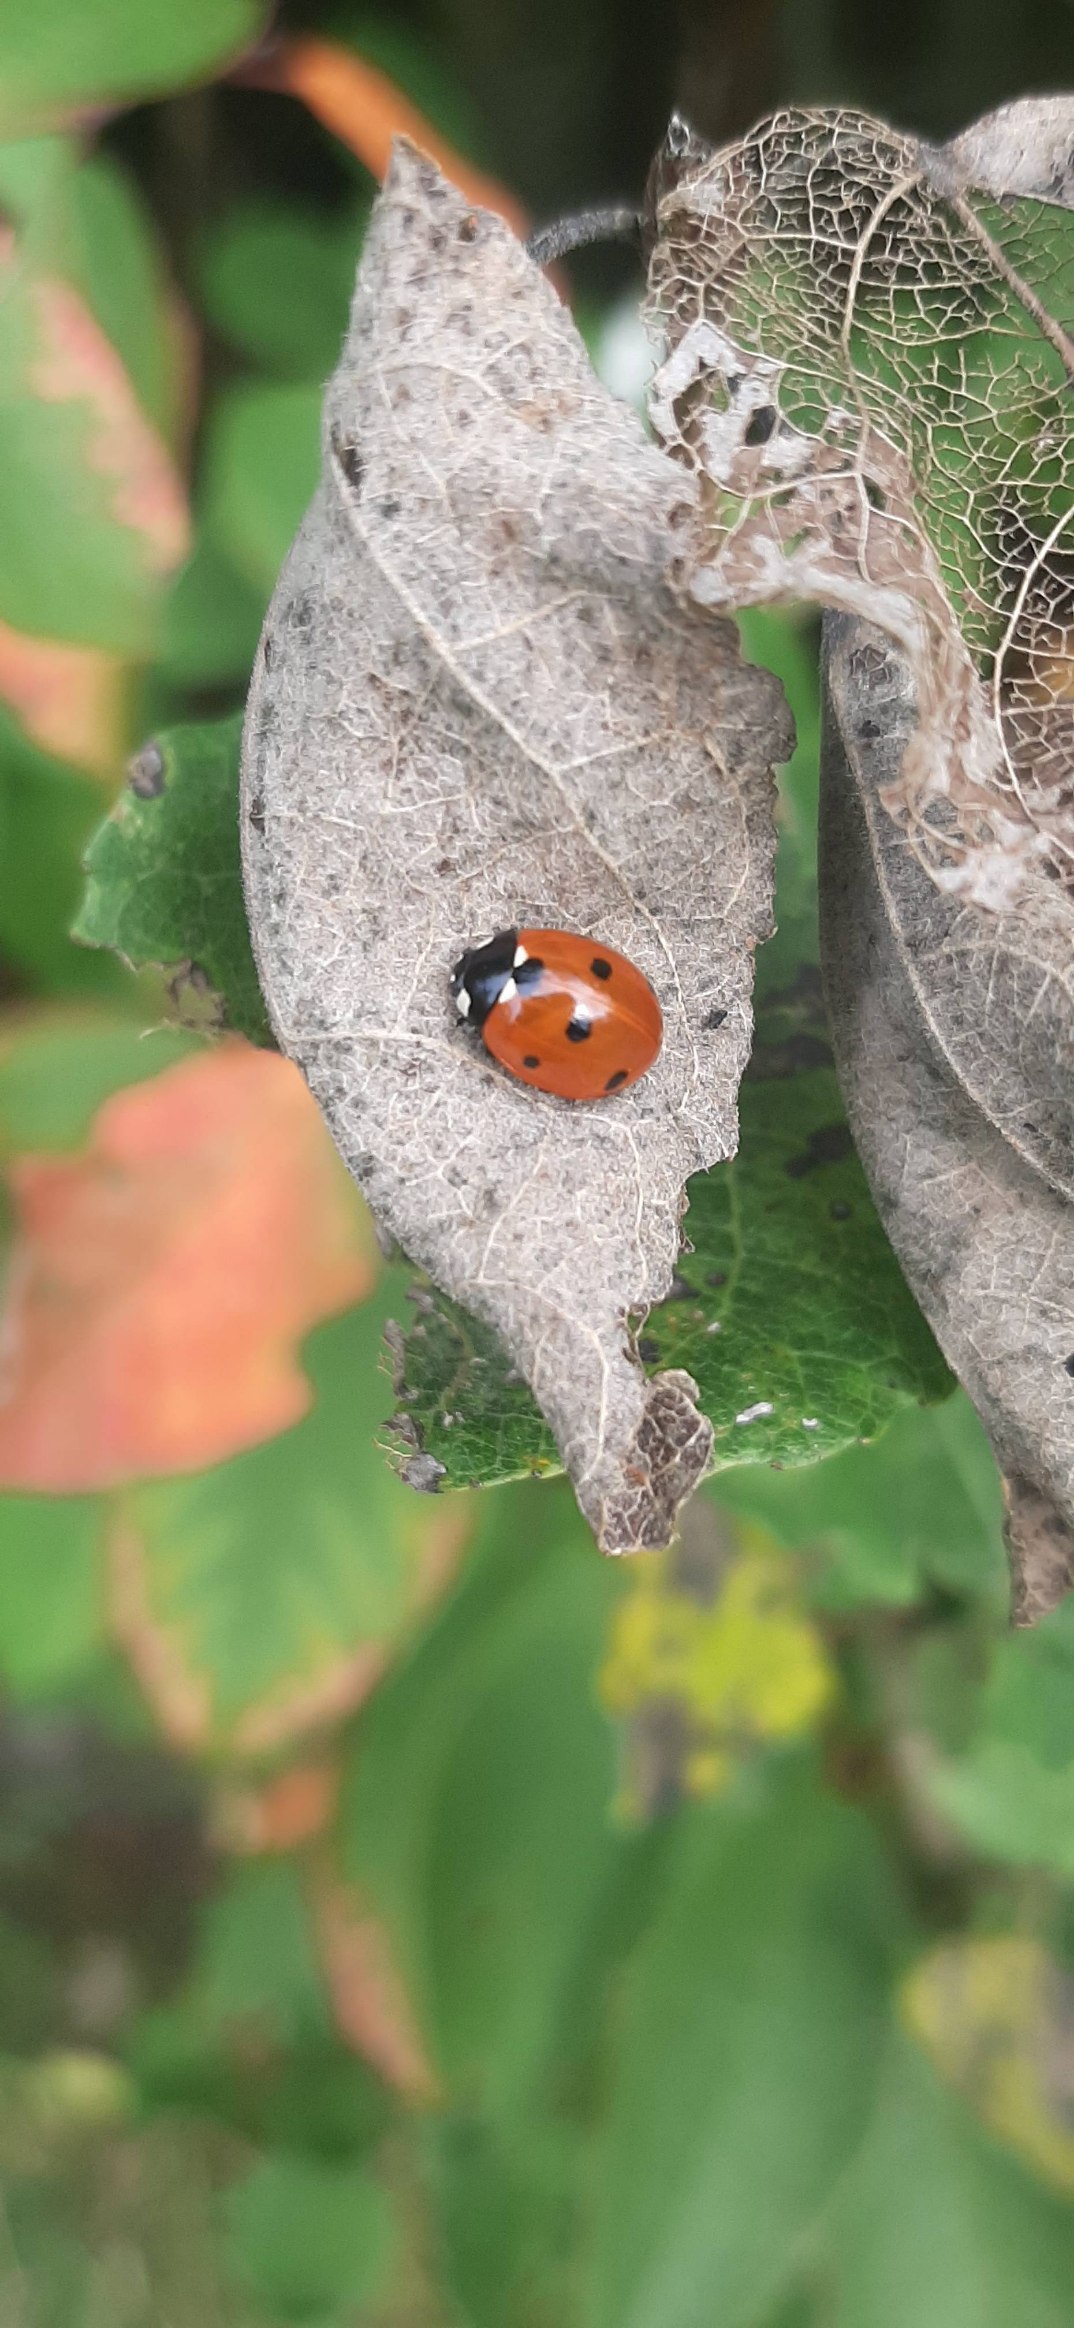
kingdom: Animalia
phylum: Arthropoda
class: Insecta
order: Coleoptera
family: Coccinellidae
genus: Coccinella
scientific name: Coccinella septempunctata
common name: Syvplettet mariehøne
